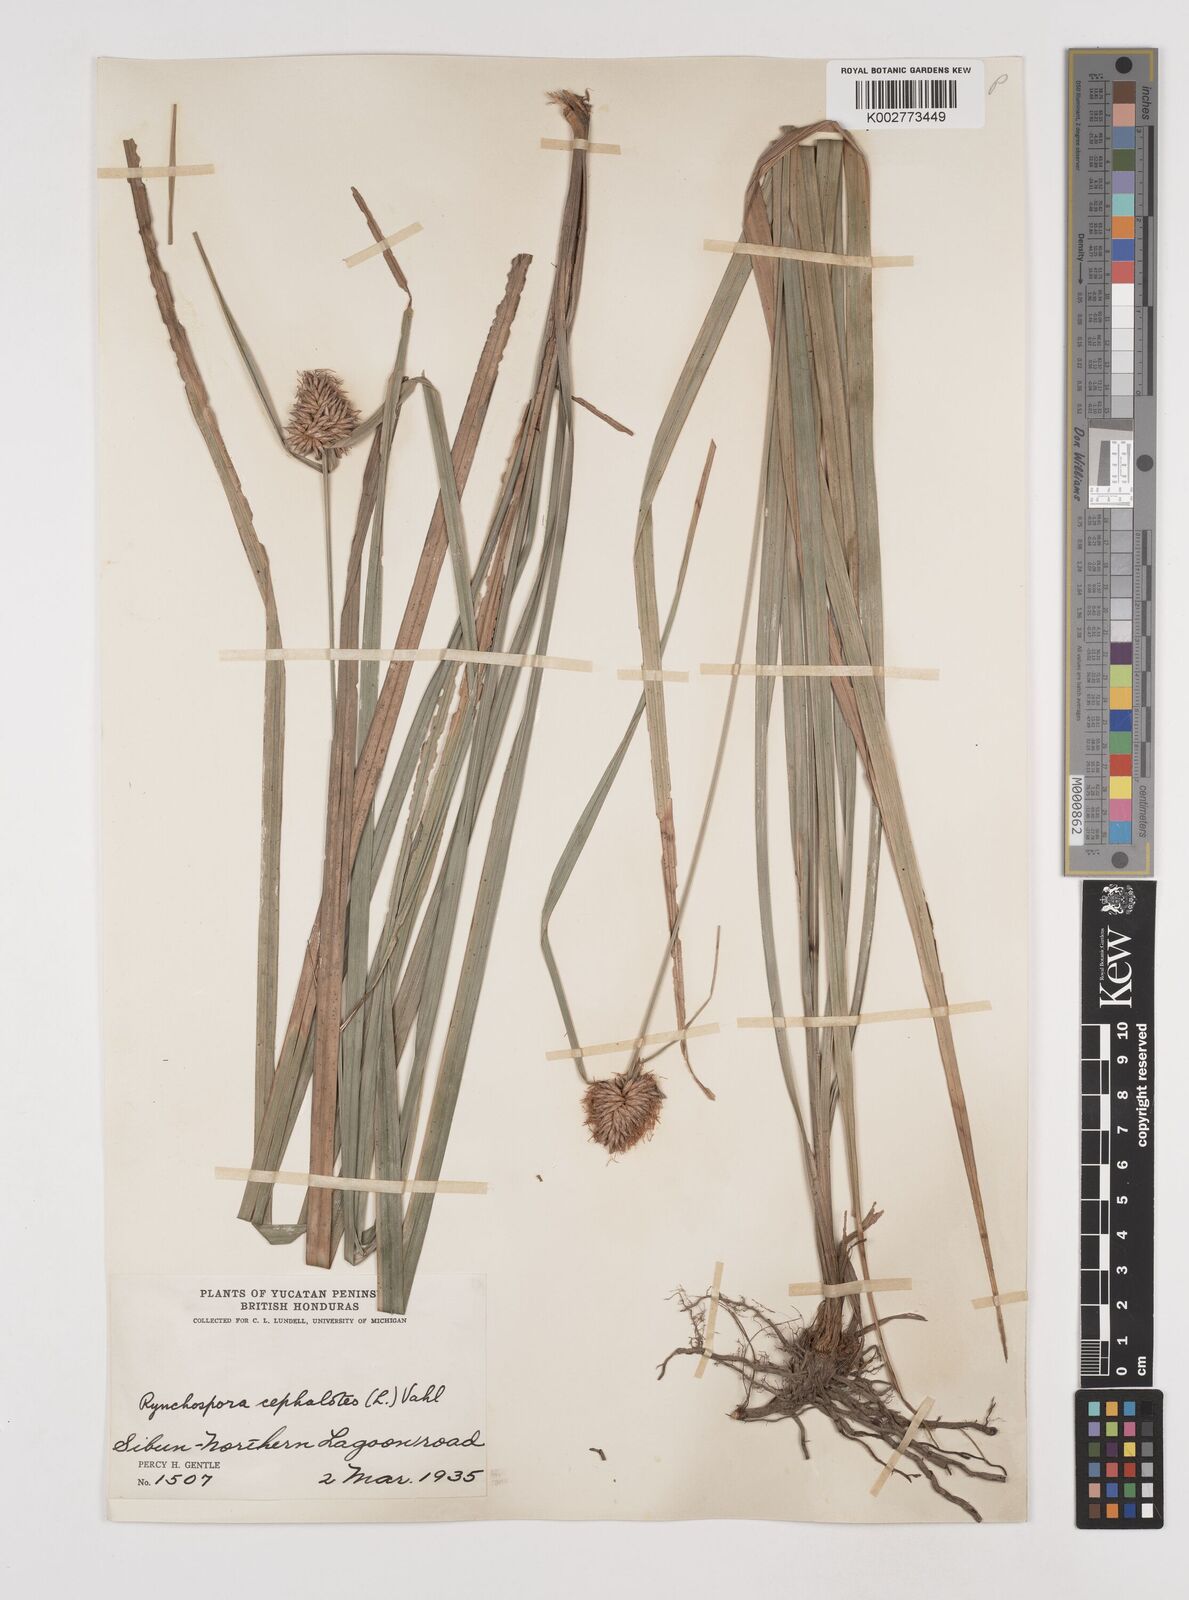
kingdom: Plantae
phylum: Tracheophyta
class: Liliopsida
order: Poales
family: Cyperaceae
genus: Rhynchospora
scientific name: Rhynchospora cephalotes
